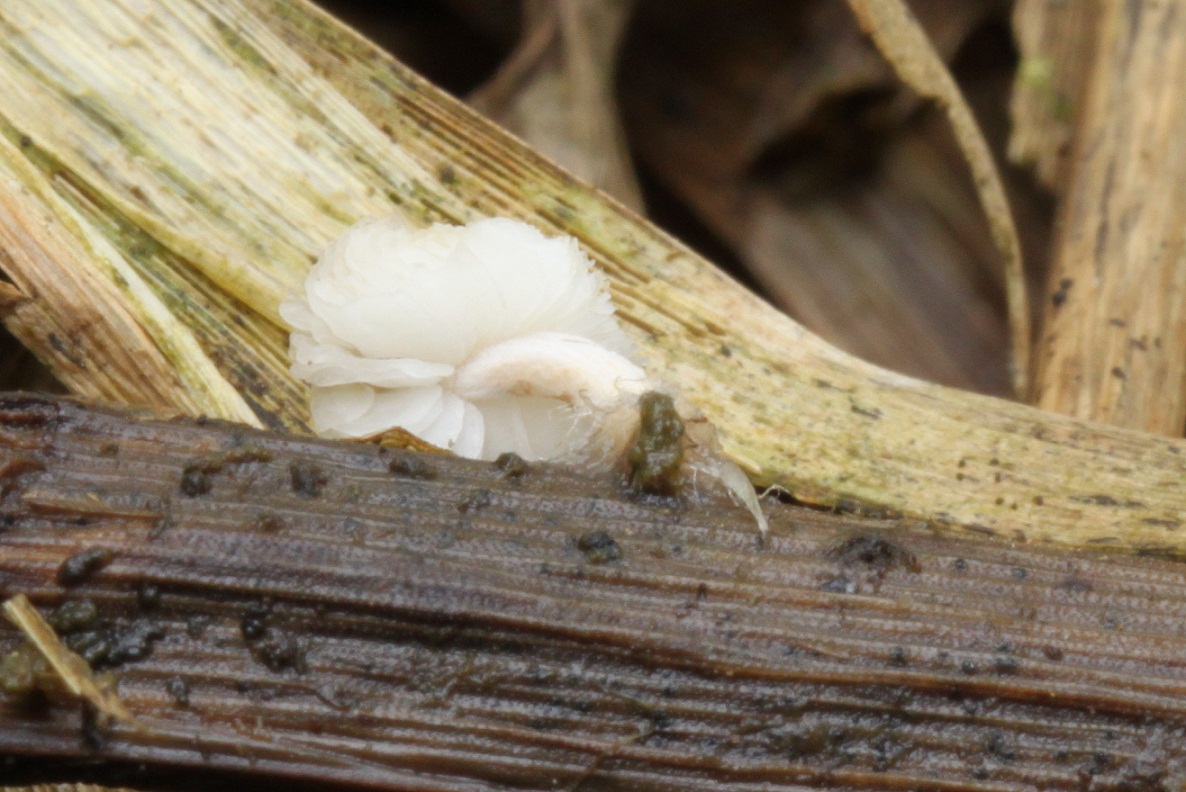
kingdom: Fungi
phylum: Basidiomycota
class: Agaricomycetes
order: Agaricales
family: Psathyrellaceae
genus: Coprinopsis
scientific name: Coprinopsis kubickae
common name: amfibie-blækhat
